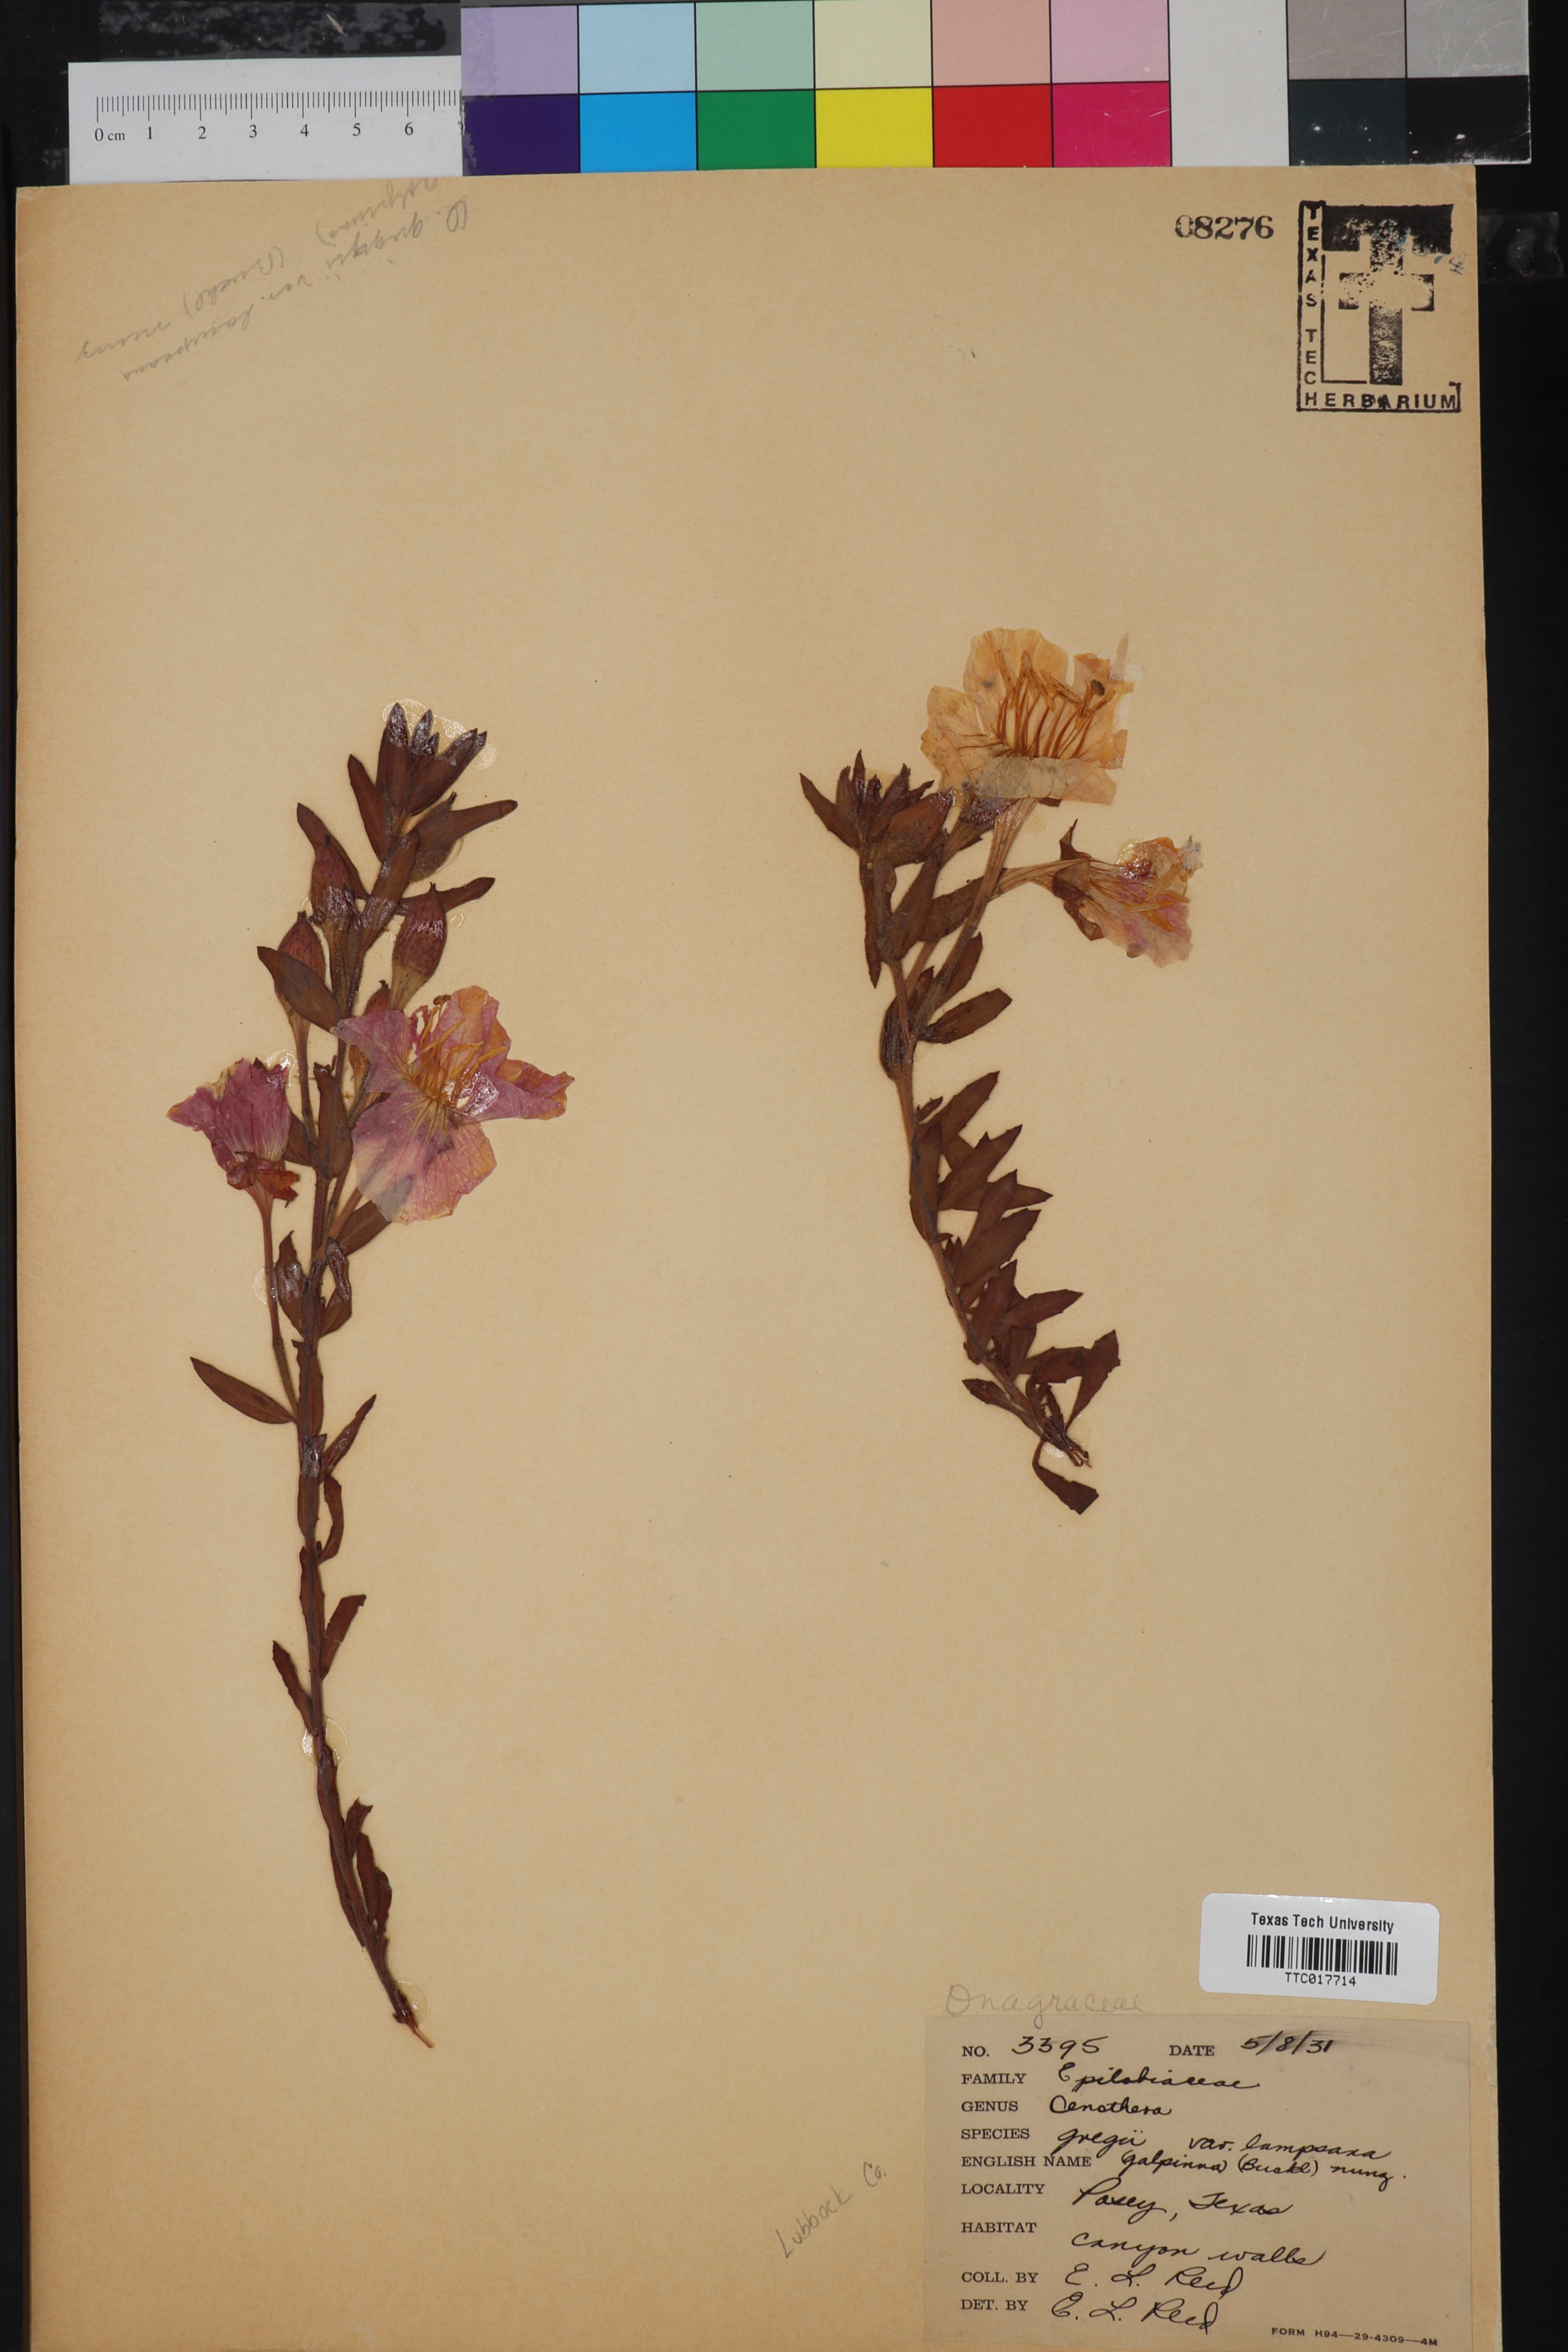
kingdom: Plantae
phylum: Tracheophyta
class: Magnoliopsida
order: Myrtales
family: Onagraceae
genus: Oenothera
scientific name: Oenothera hartwegii
